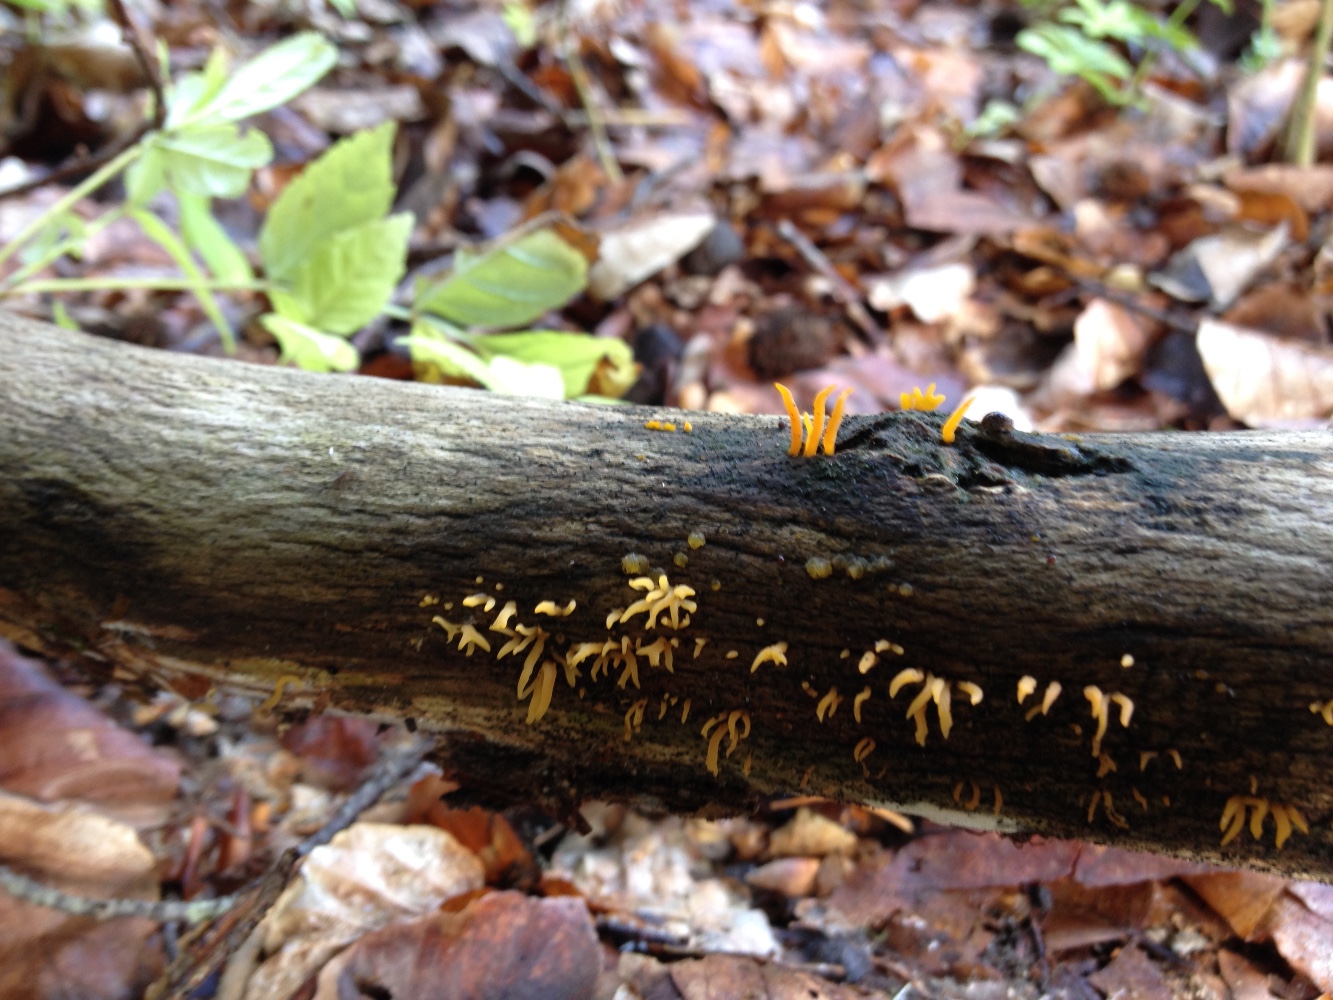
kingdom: Fungi
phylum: Basidiomycota
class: Dacrymycetes
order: Dacrymycetales
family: Dacrymycetaceae
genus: Calocera
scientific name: Calocera cornea
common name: liden guldgaffel
